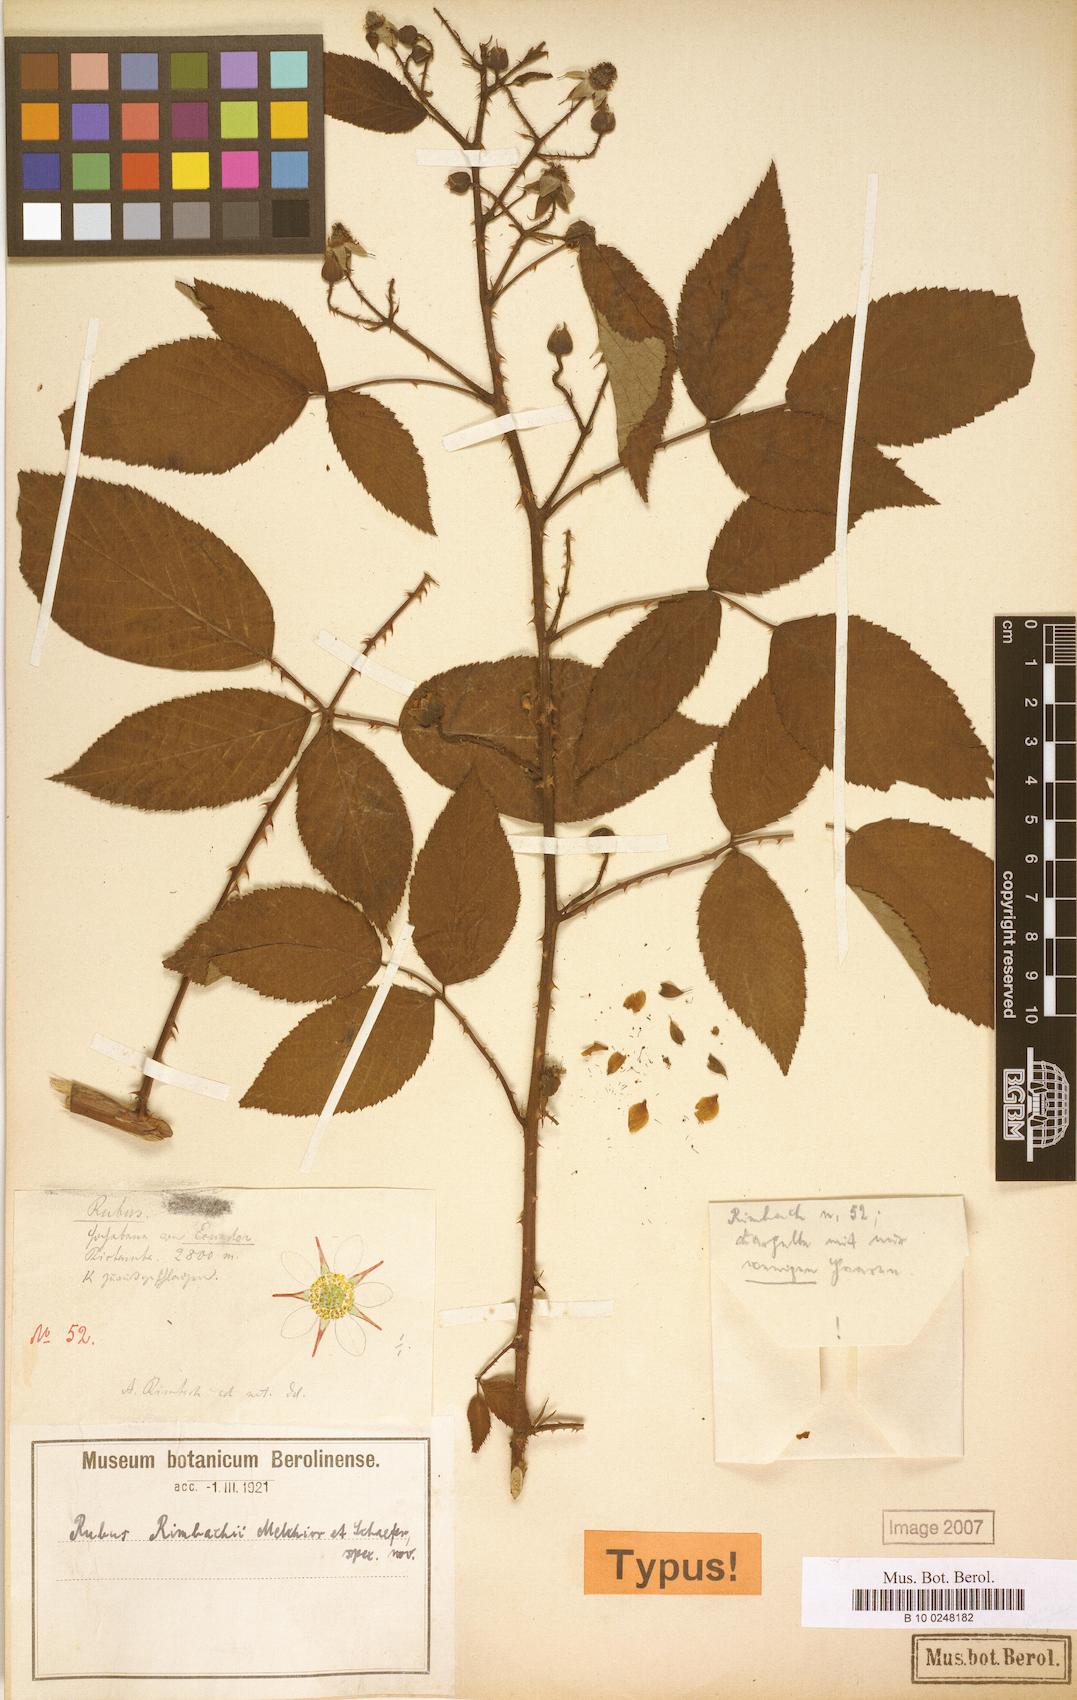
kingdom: Plantae
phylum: Tracheophyta
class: Magnoliopsida
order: Rosales
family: Rosaceae
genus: Rubus
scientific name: Rubus
